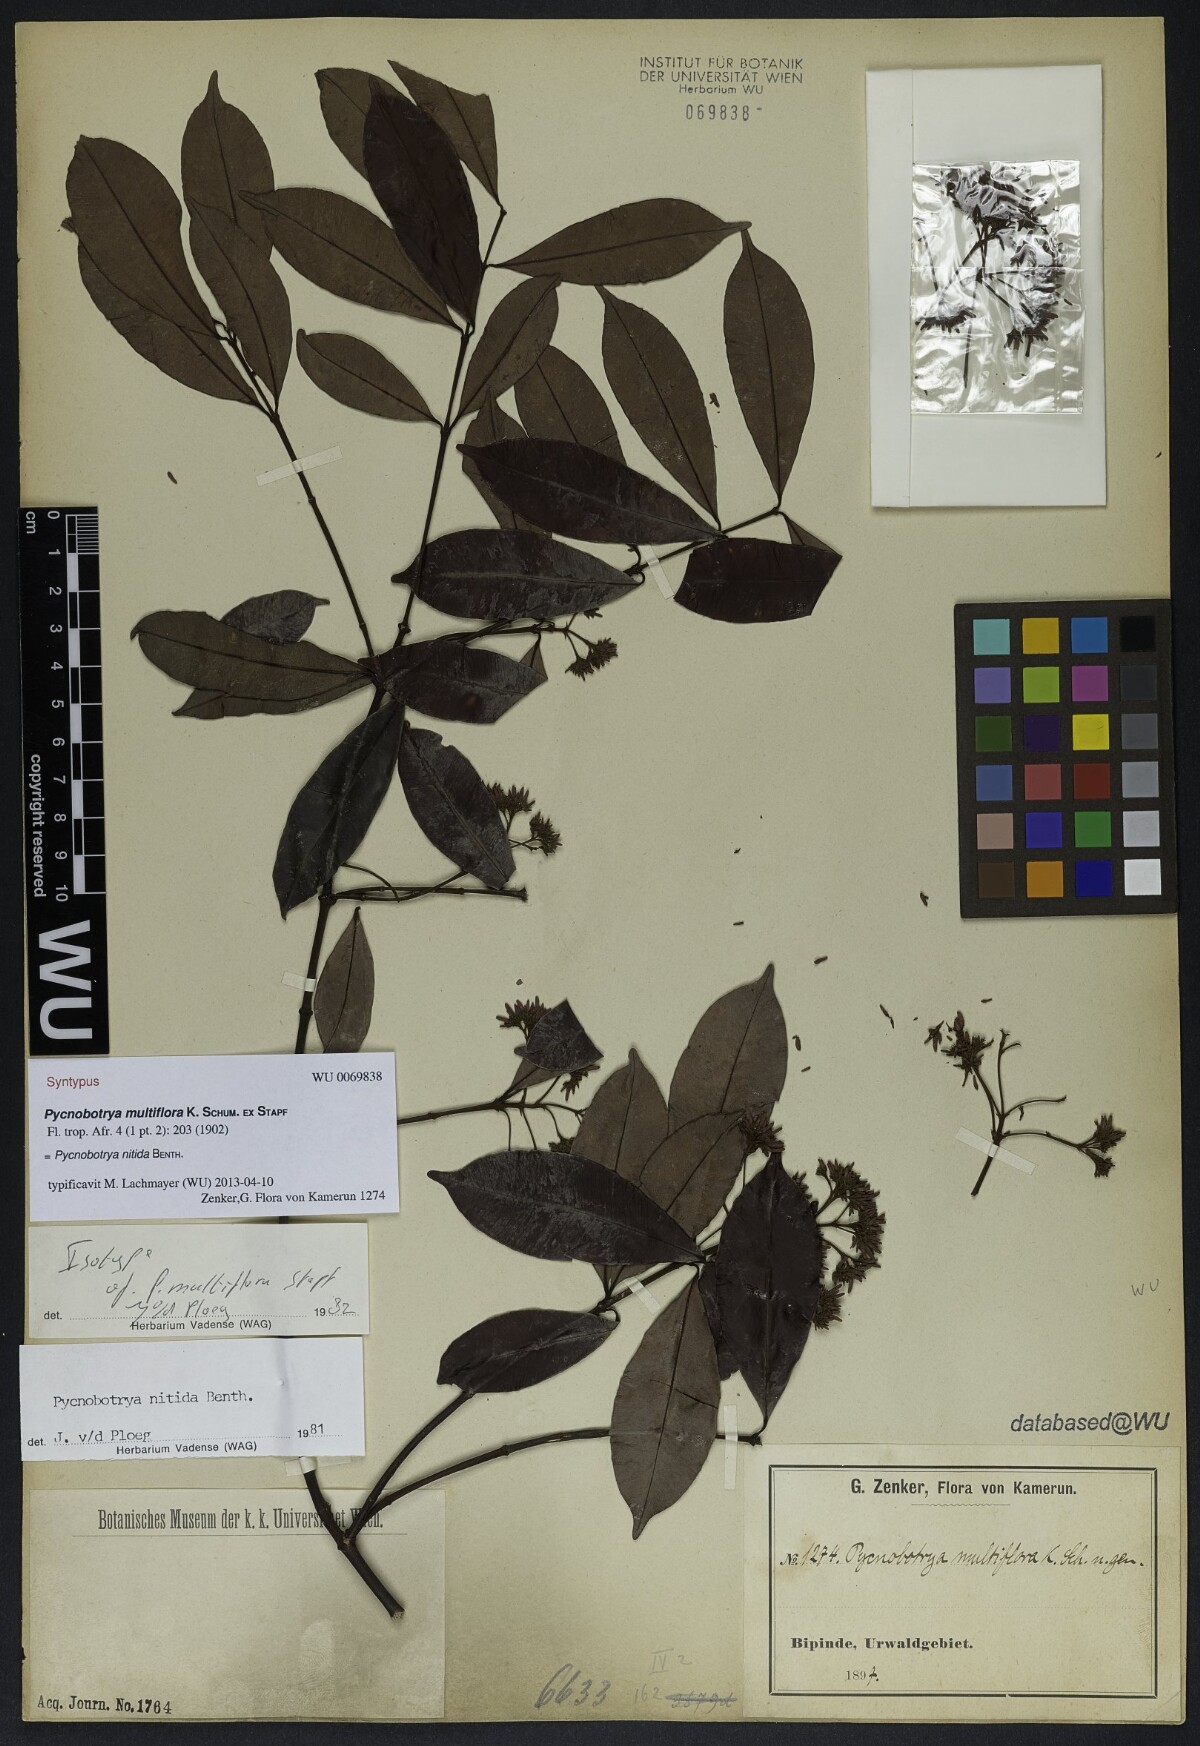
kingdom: Plantae
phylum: Tracheophyta
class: Magnoliopsida
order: Gentianales
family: Apocynaceae
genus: Pycnobotrya
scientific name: Pycnobotrya nitida
